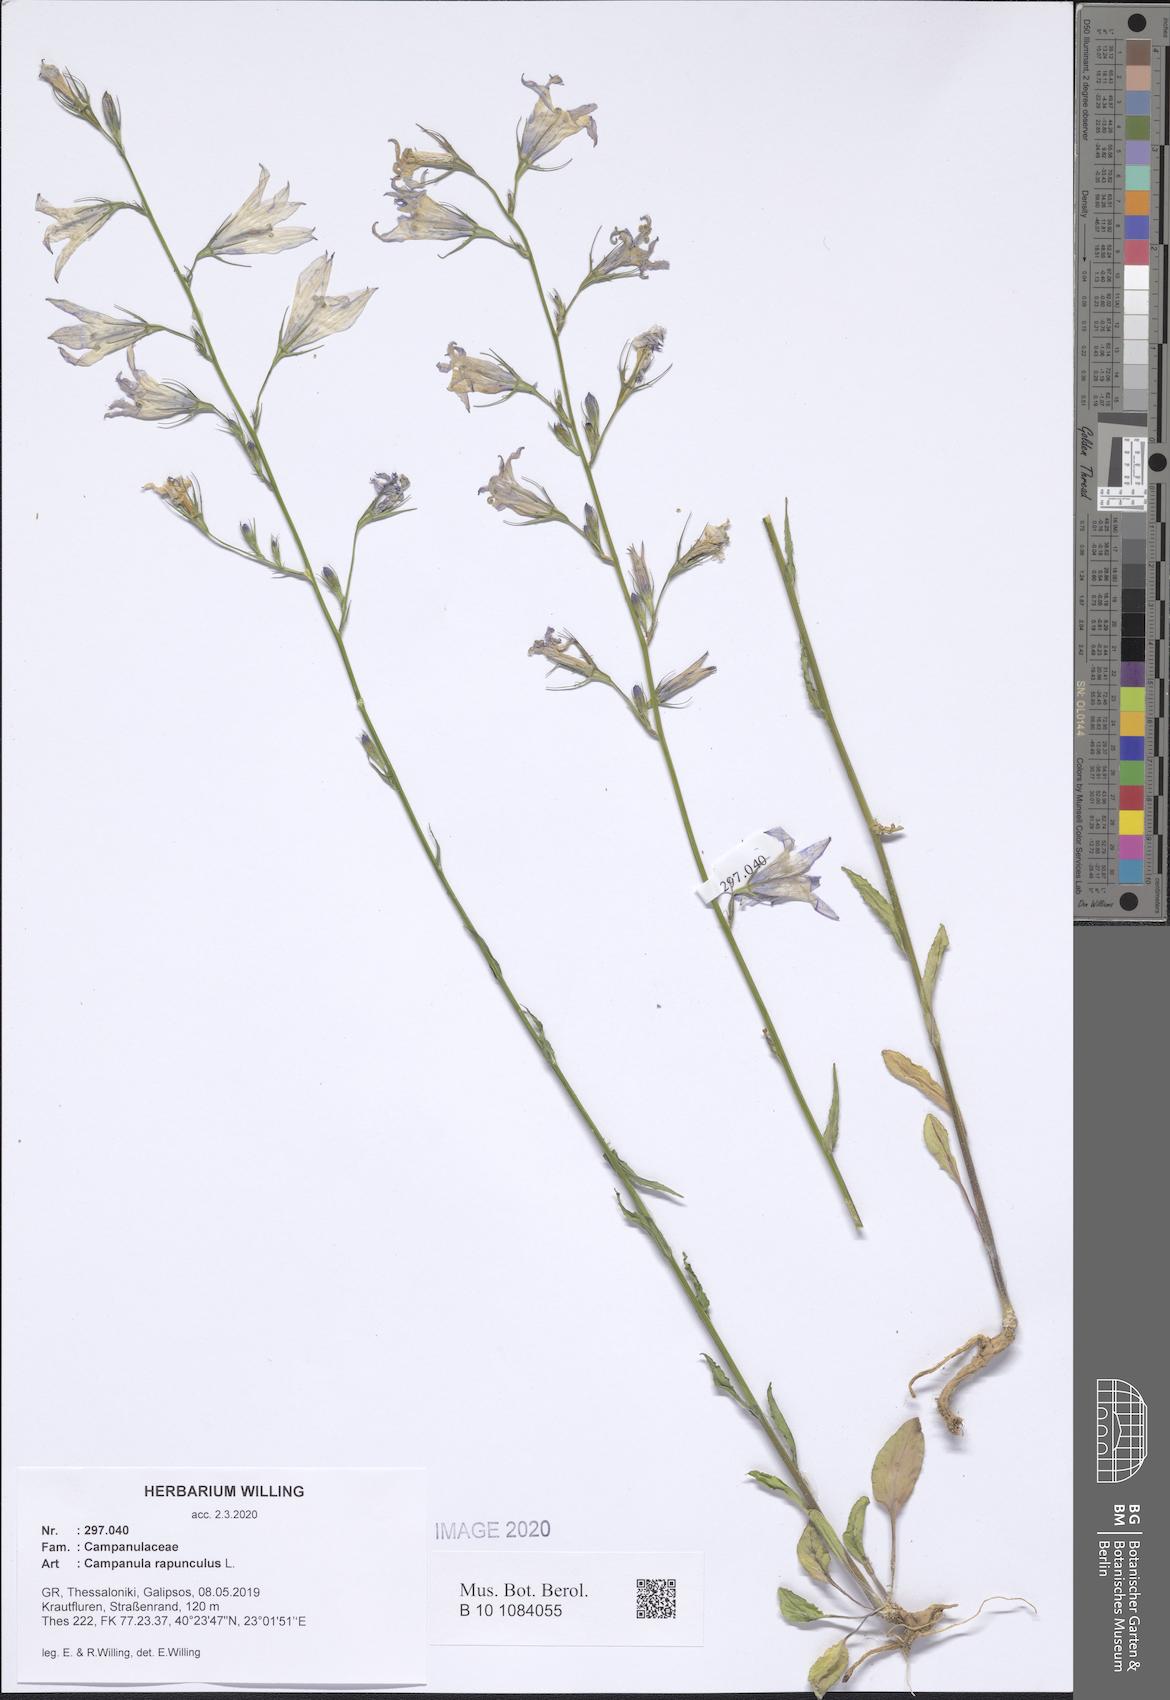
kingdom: Plantae
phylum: Tracheophyta
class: Magnoliopsida
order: Asterales
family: Campanulaceae
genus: Campanula
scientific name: Campanula rapunculus
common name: Rampion bellflower
